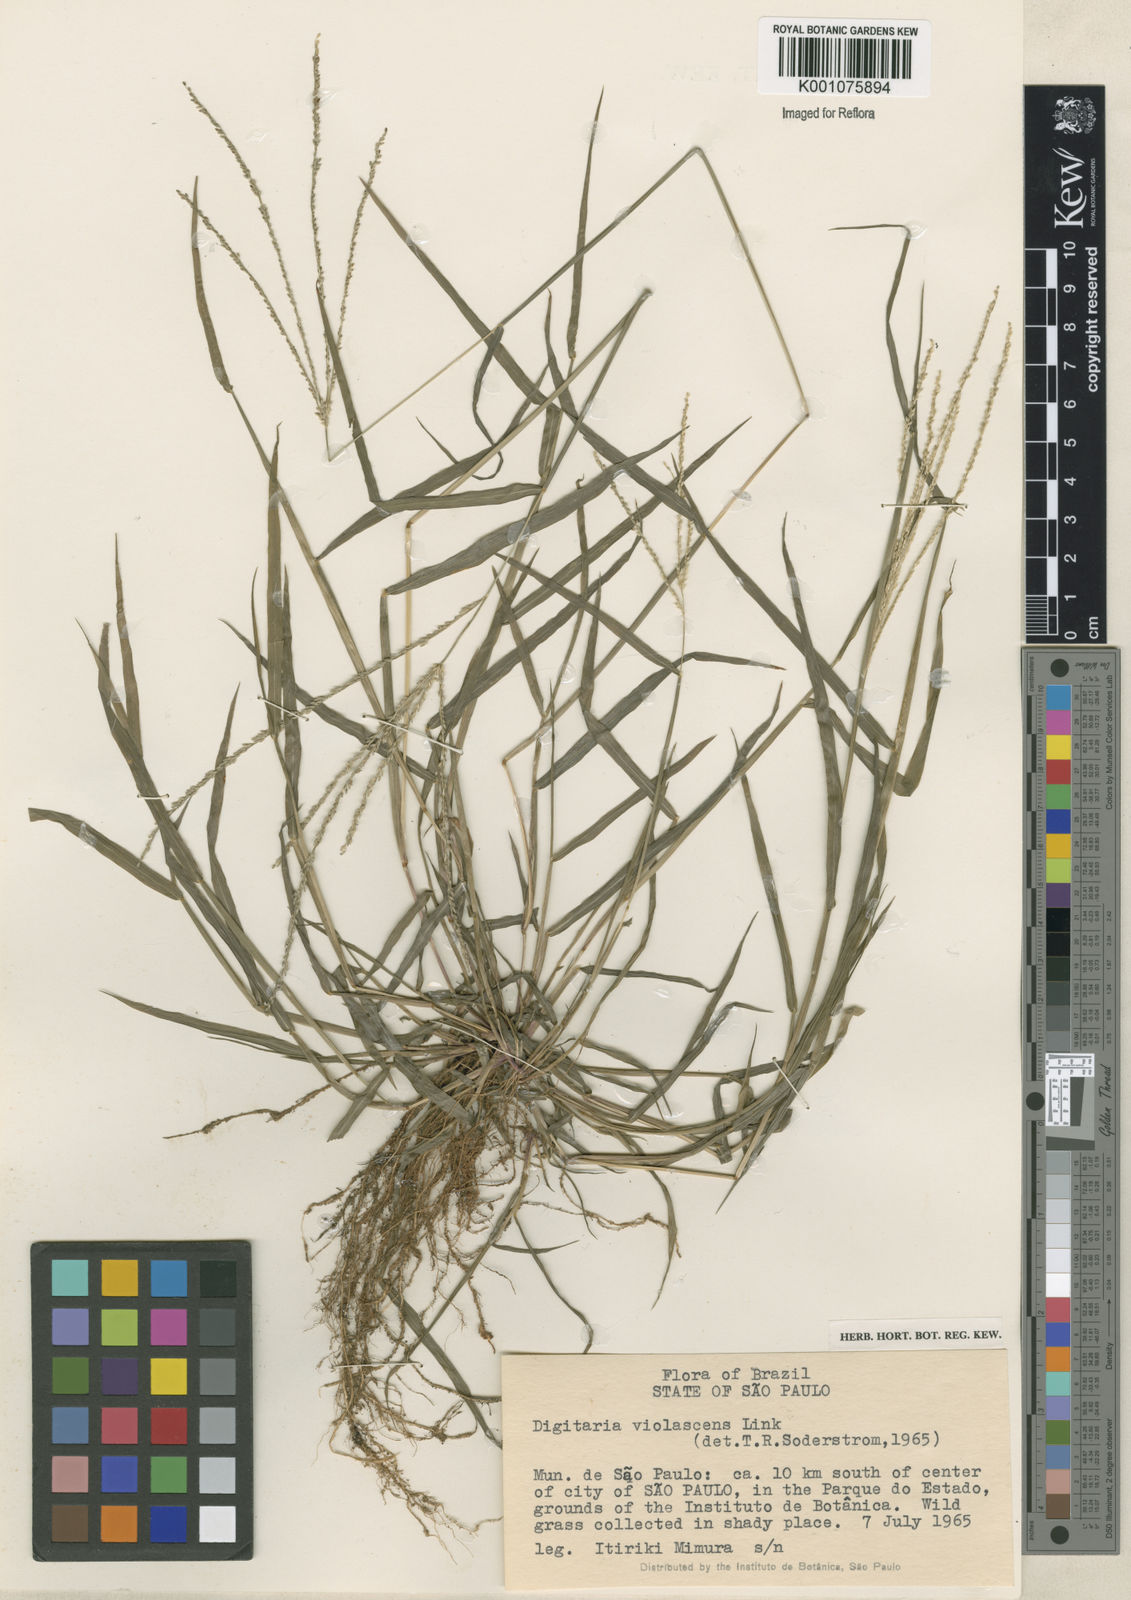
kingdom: Plantae
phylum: Tracheophyta
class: Liliopsida
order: Poales
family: Poaceae
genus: Digitaria
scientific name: Digitaria violascens
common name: Violet crabgrass
